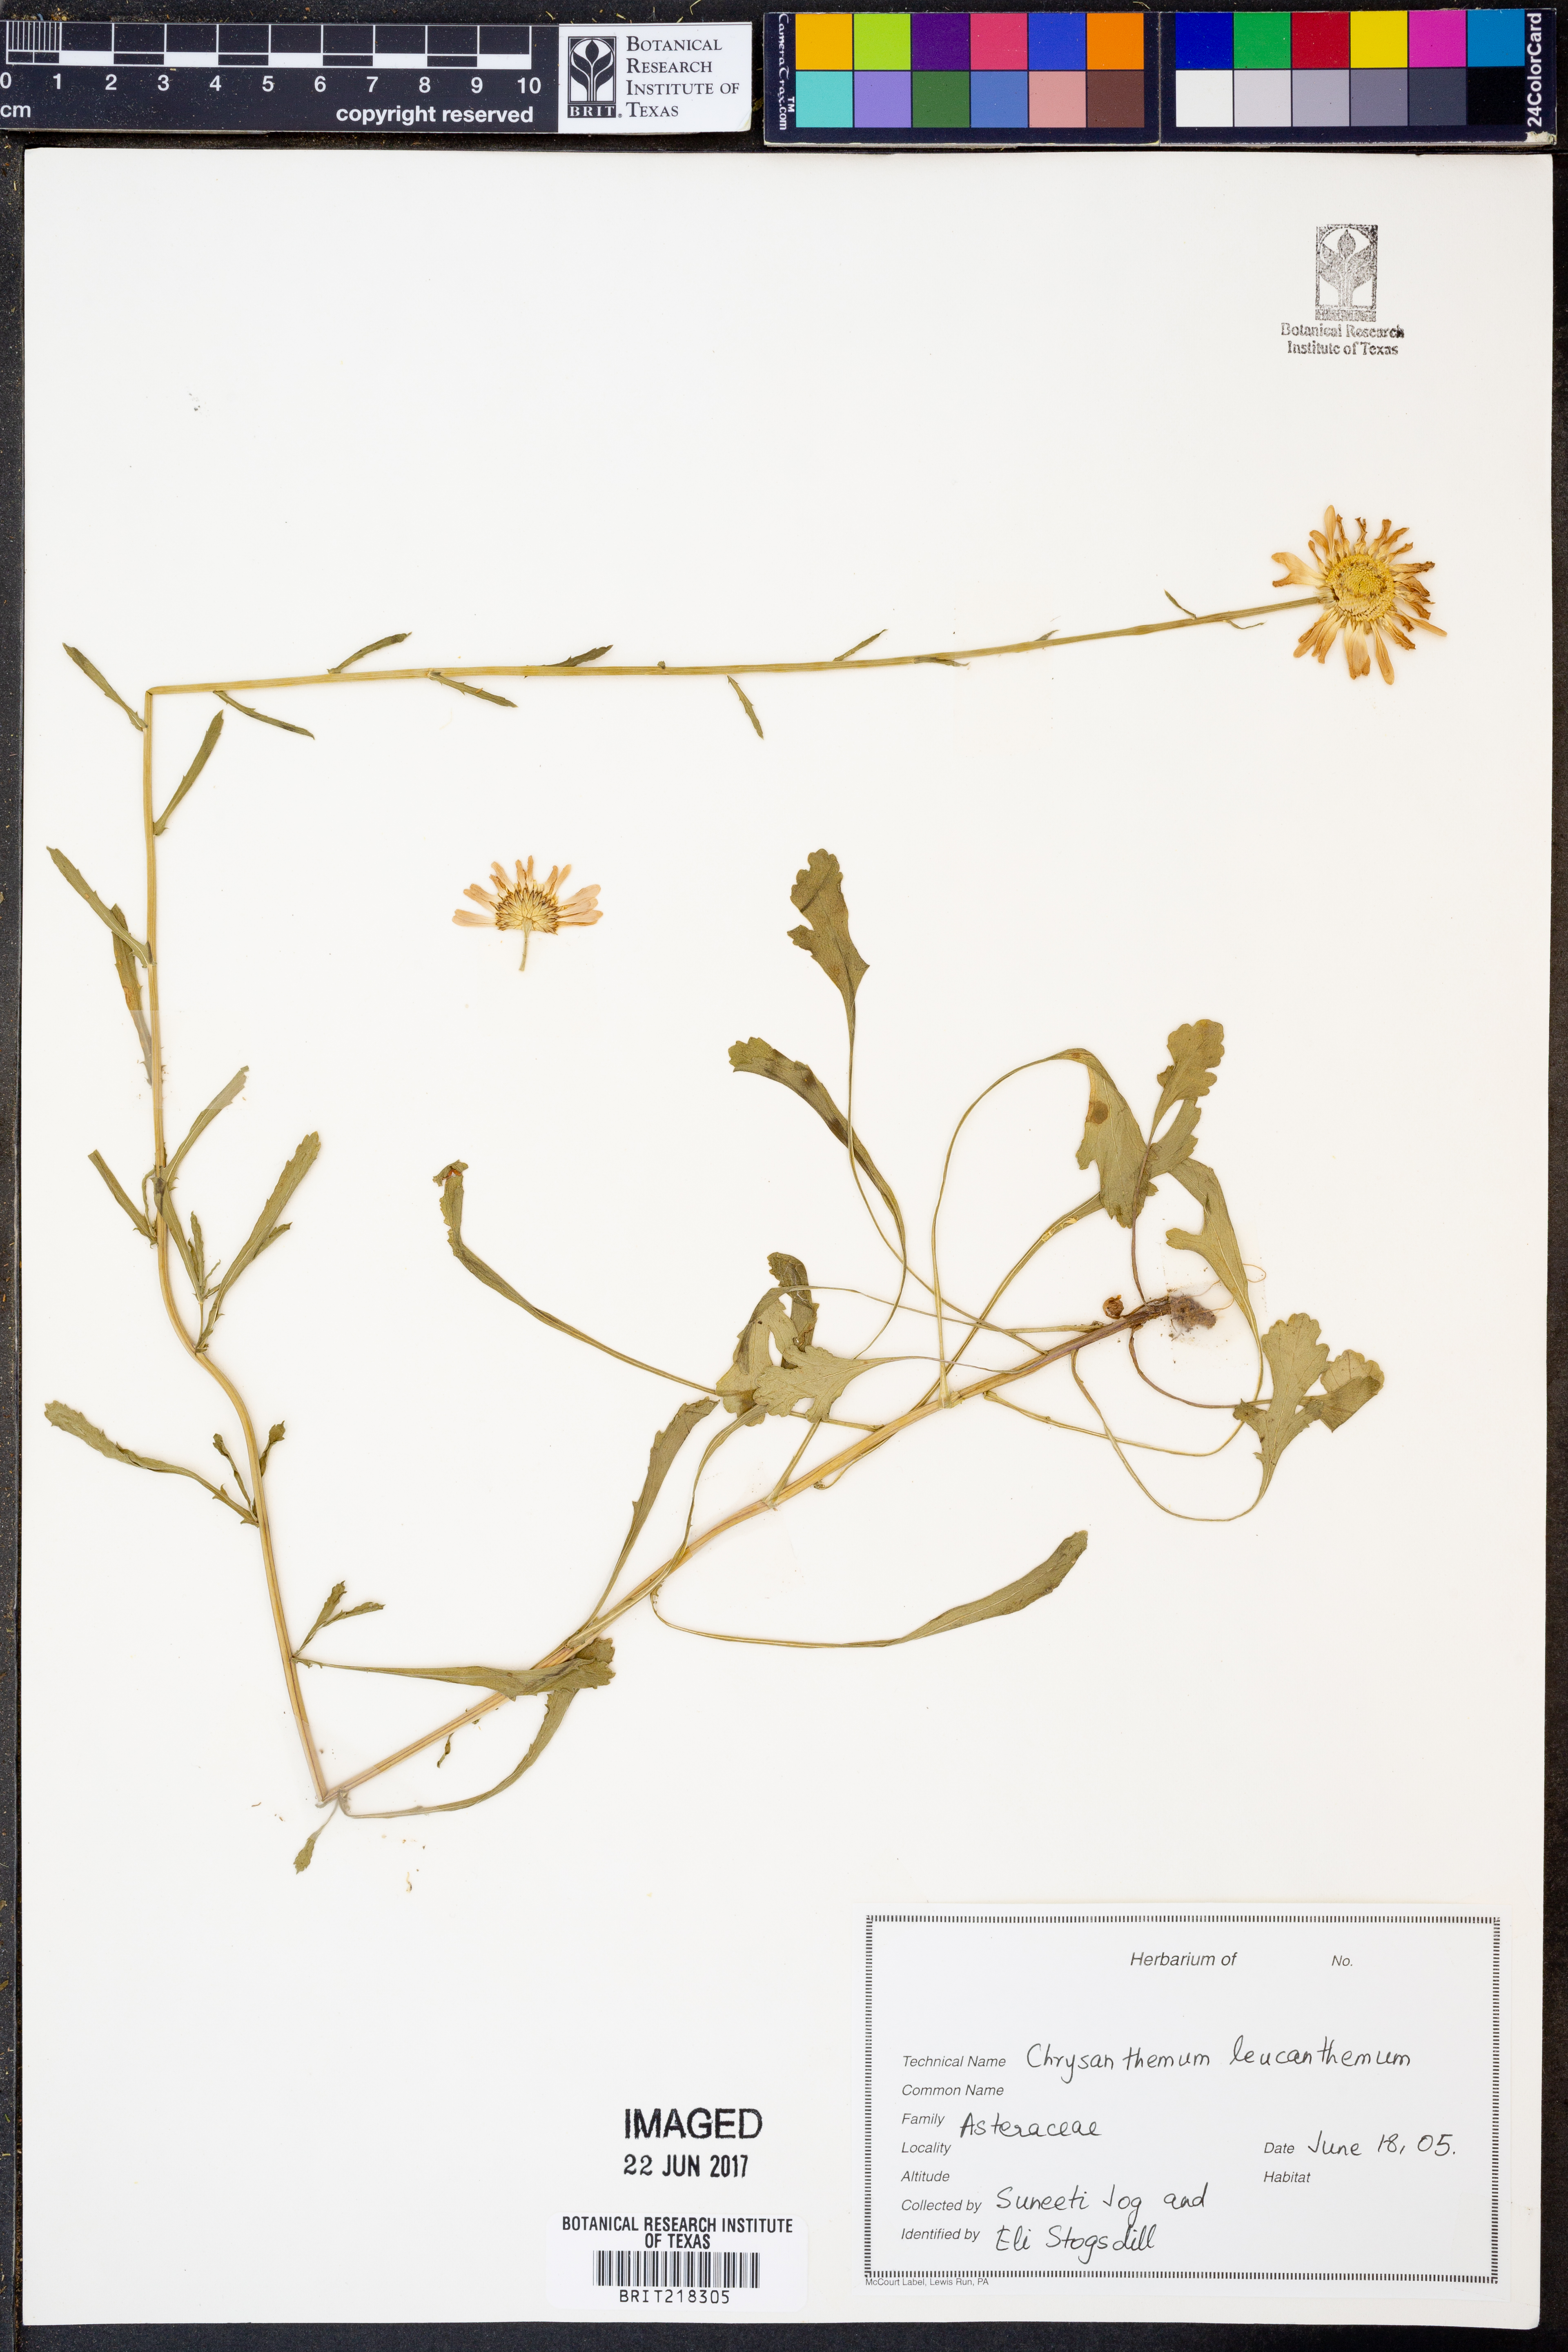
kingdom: Plantae
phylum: Tracheophyta
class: Magnoliopsida
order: Asterales
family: Asteraceae
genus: Leucanthemum
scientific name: Leucanthemum vulgare
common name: Oxeye daisy
